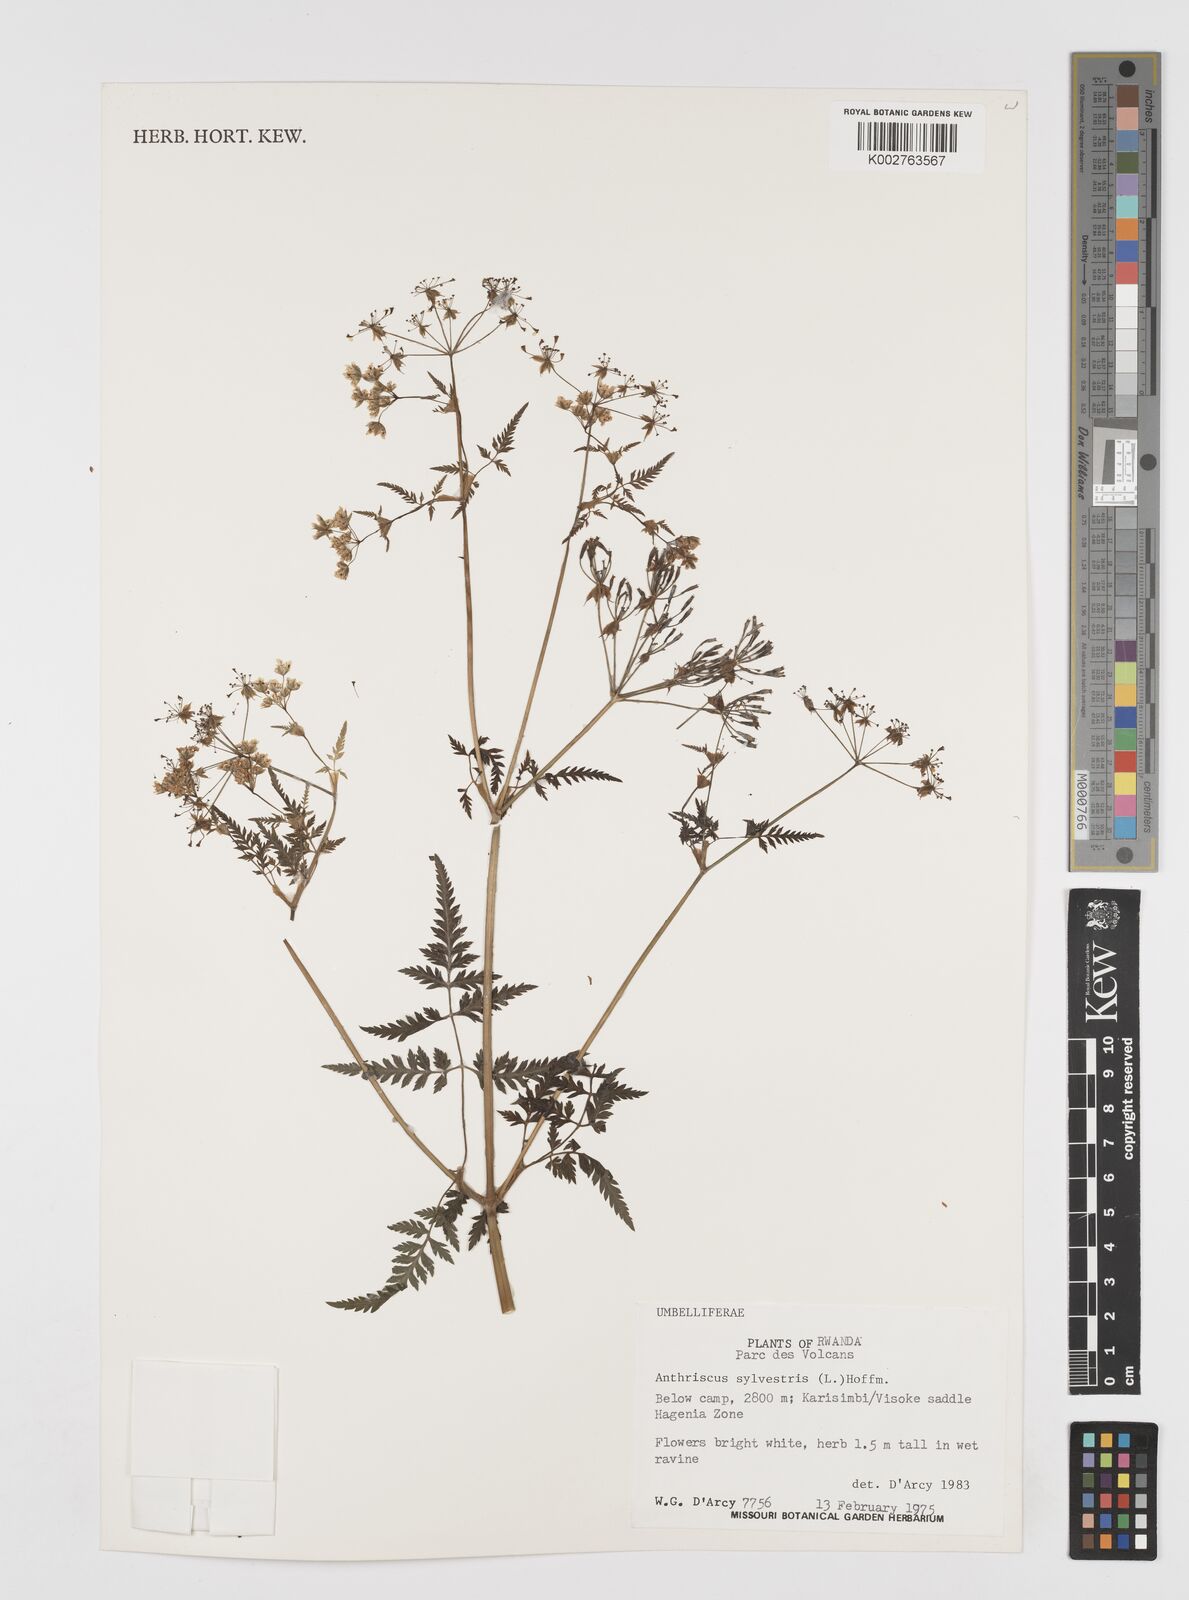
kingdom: Plantae
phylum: Tracheophyta
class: Magnoliopsida
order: Apiales
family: Apiaceae
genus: Anthriscus
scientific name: Anthriscus sylvestris
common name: Cow parsley
